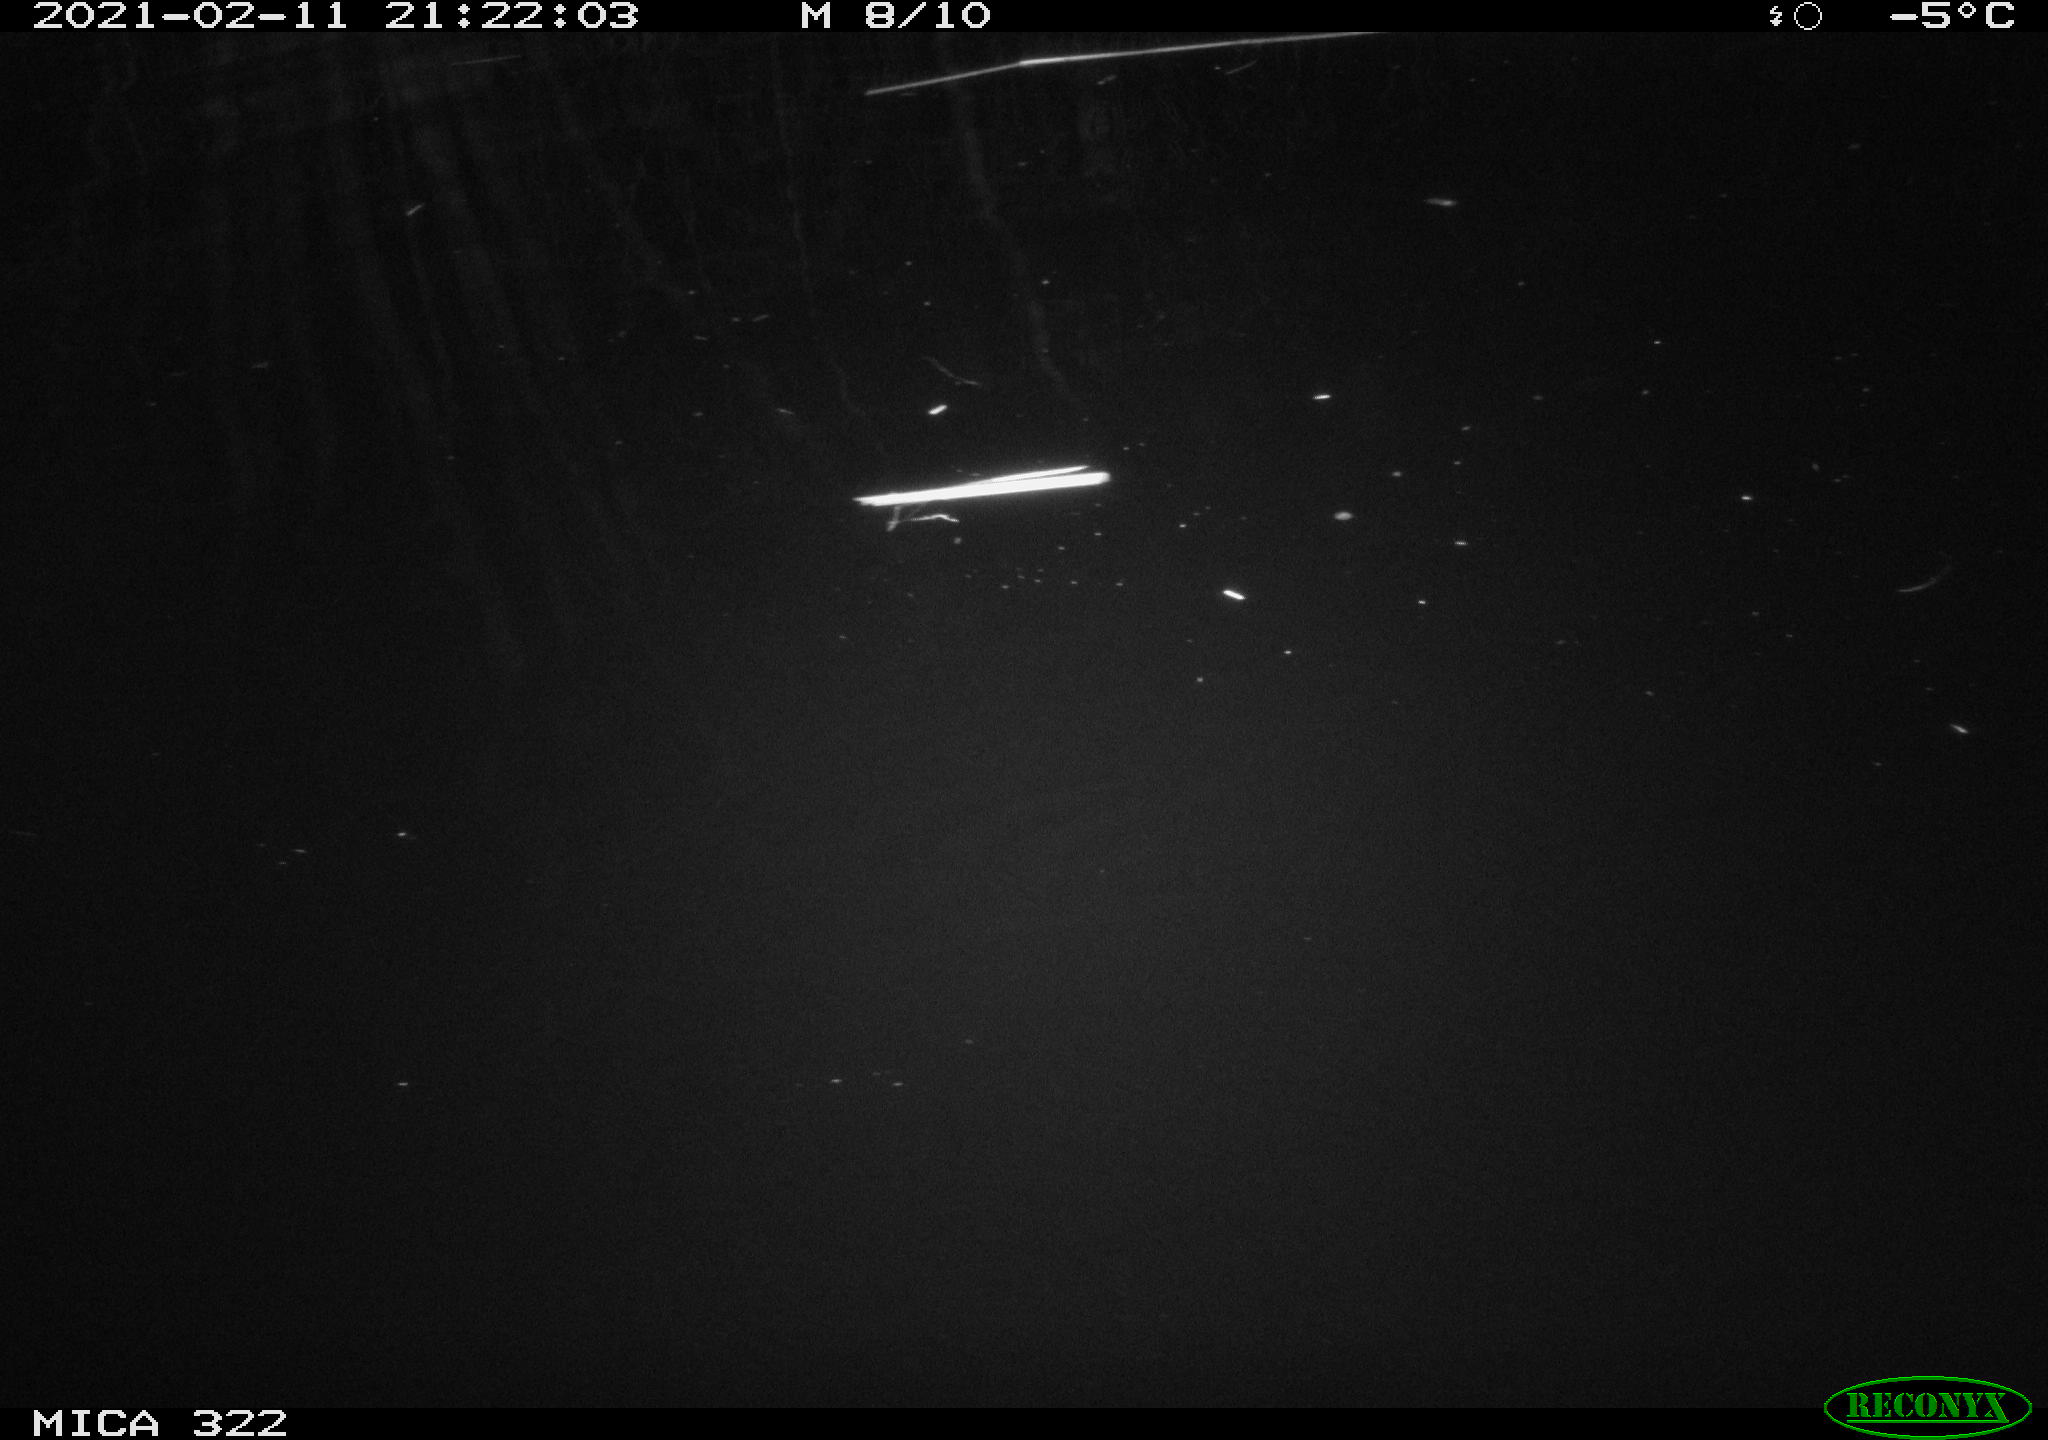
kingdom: Animalia
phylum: Chordata
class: Aves
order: Anseriformes
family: Anatidae
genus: Anas
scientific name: Anas platyrhynchos
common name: Mallard
